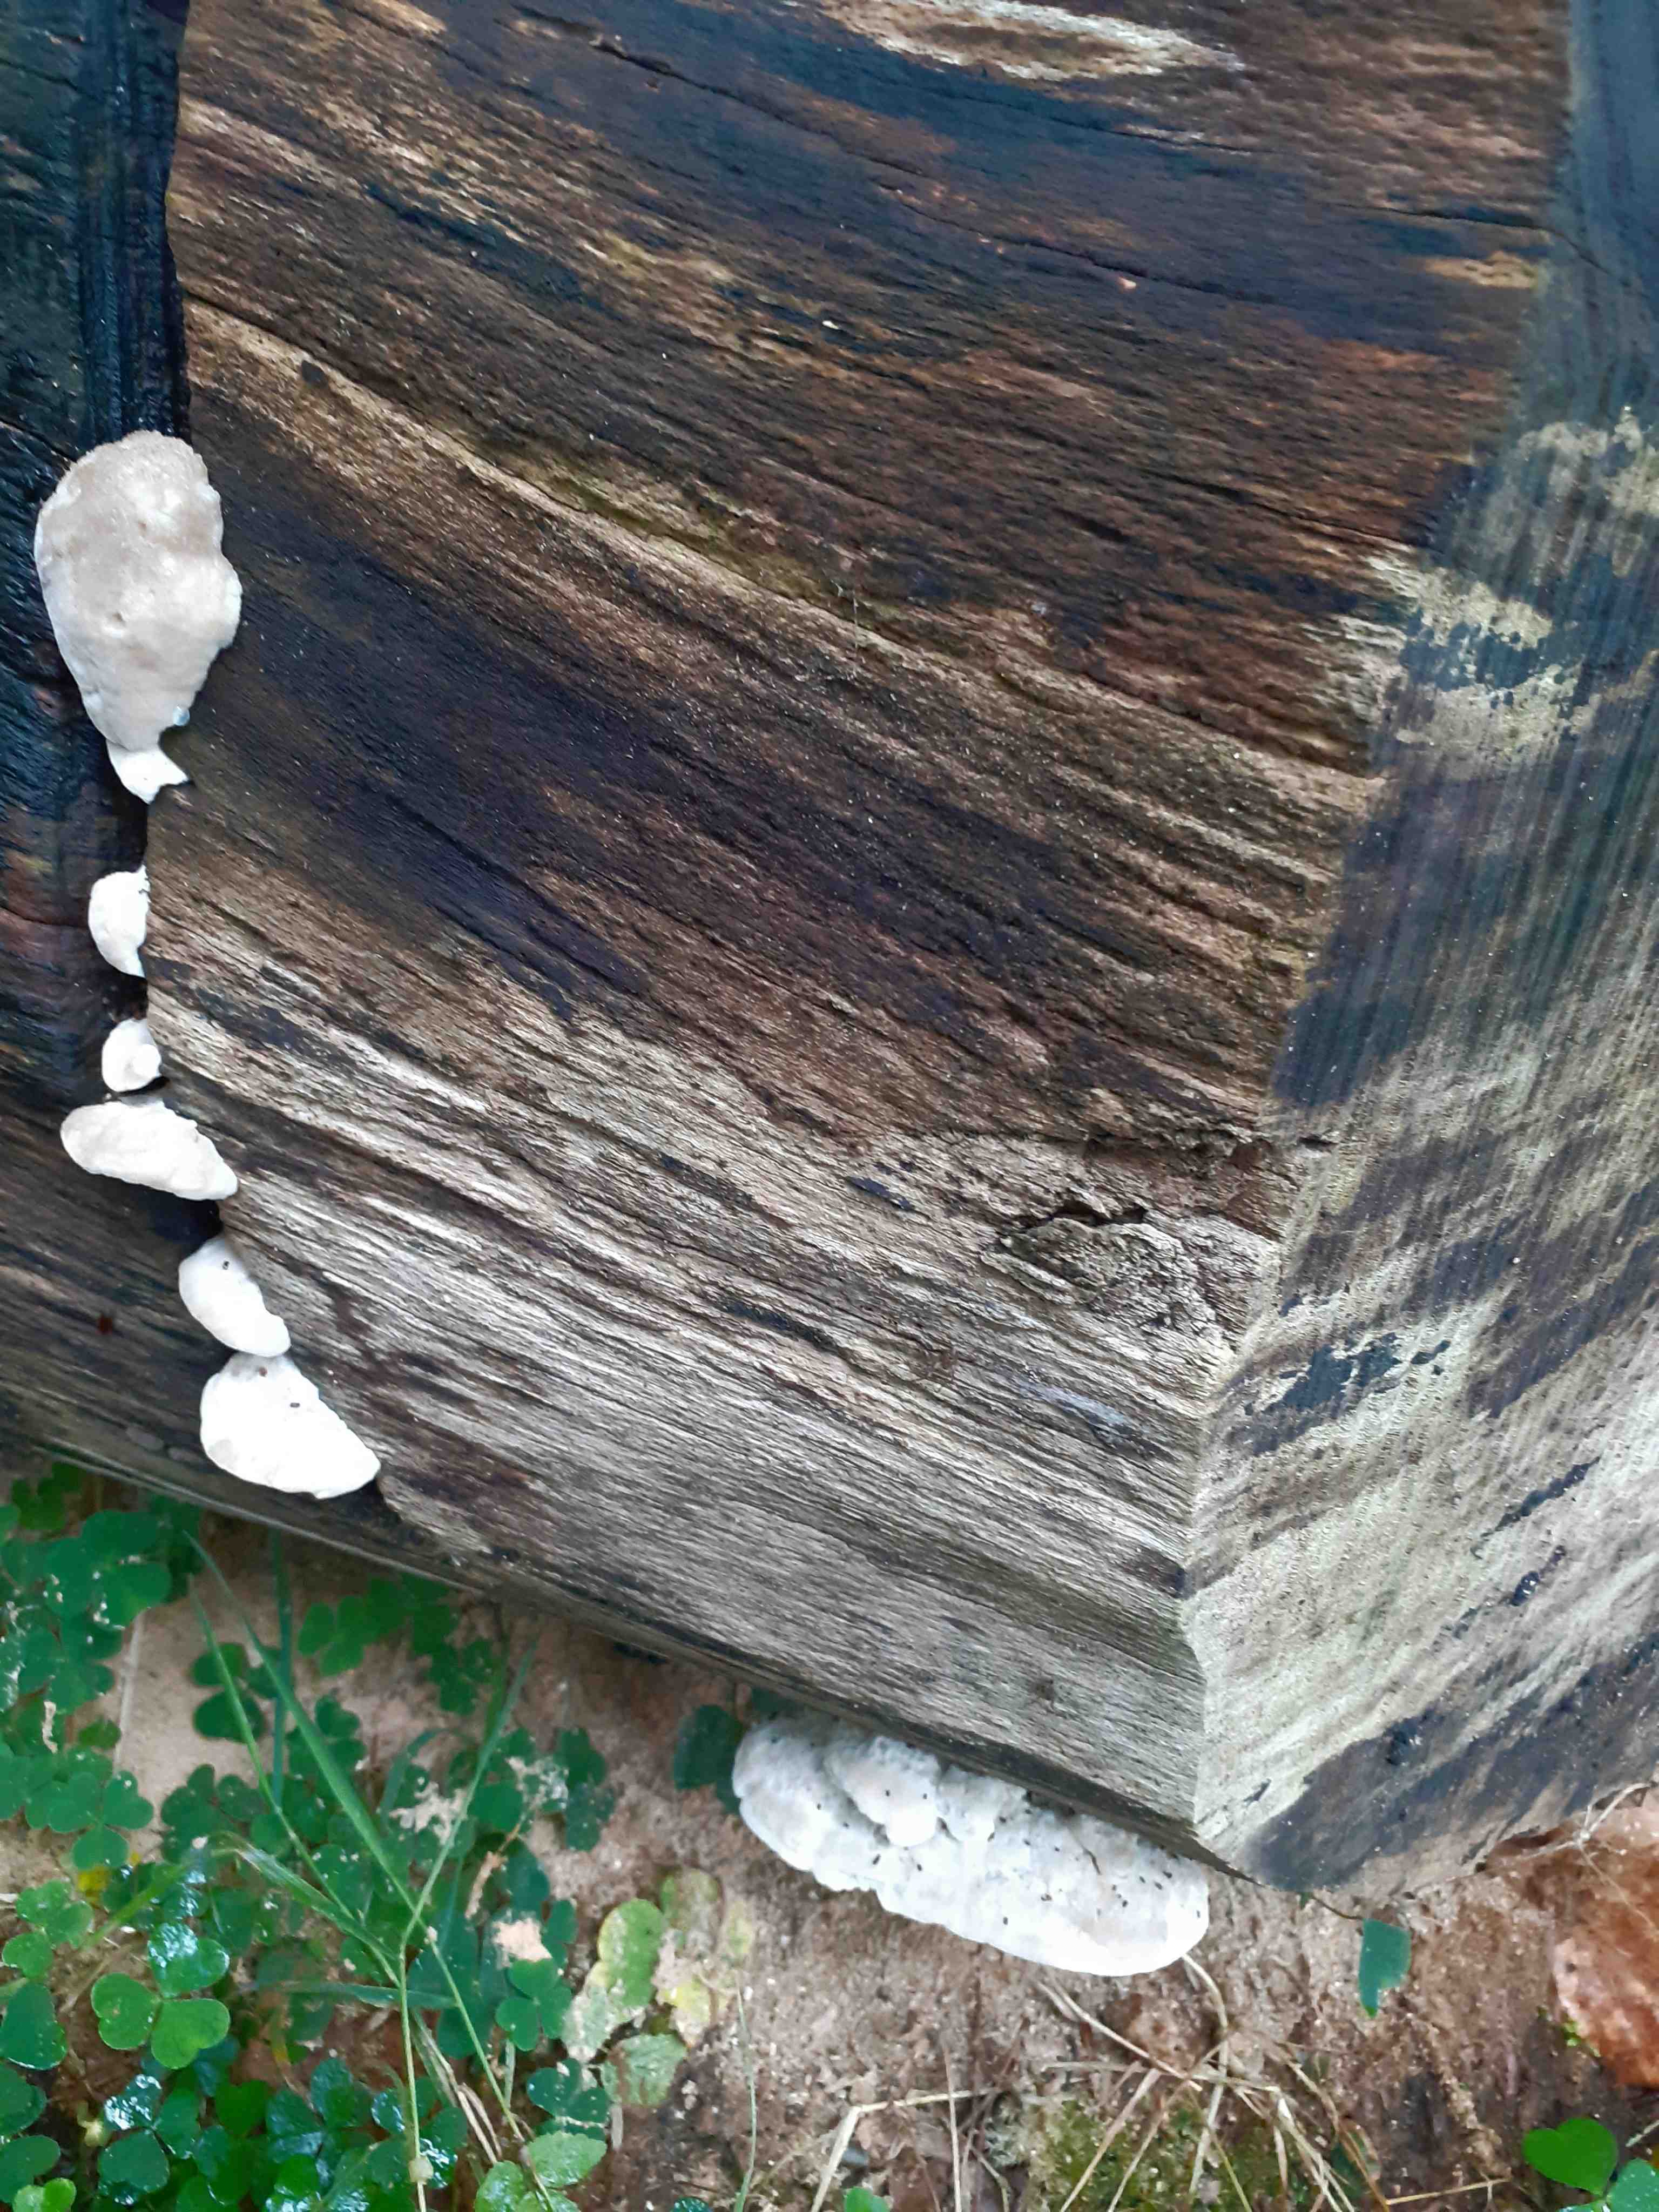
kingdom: Fungi
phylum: Basidiomycota
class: Agaricomycetes
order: Polyporales
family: Incrustoporiaceae
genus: Tyromyces
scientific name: Tyromyces lacteus
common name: mælkehvid kødporesvamp
